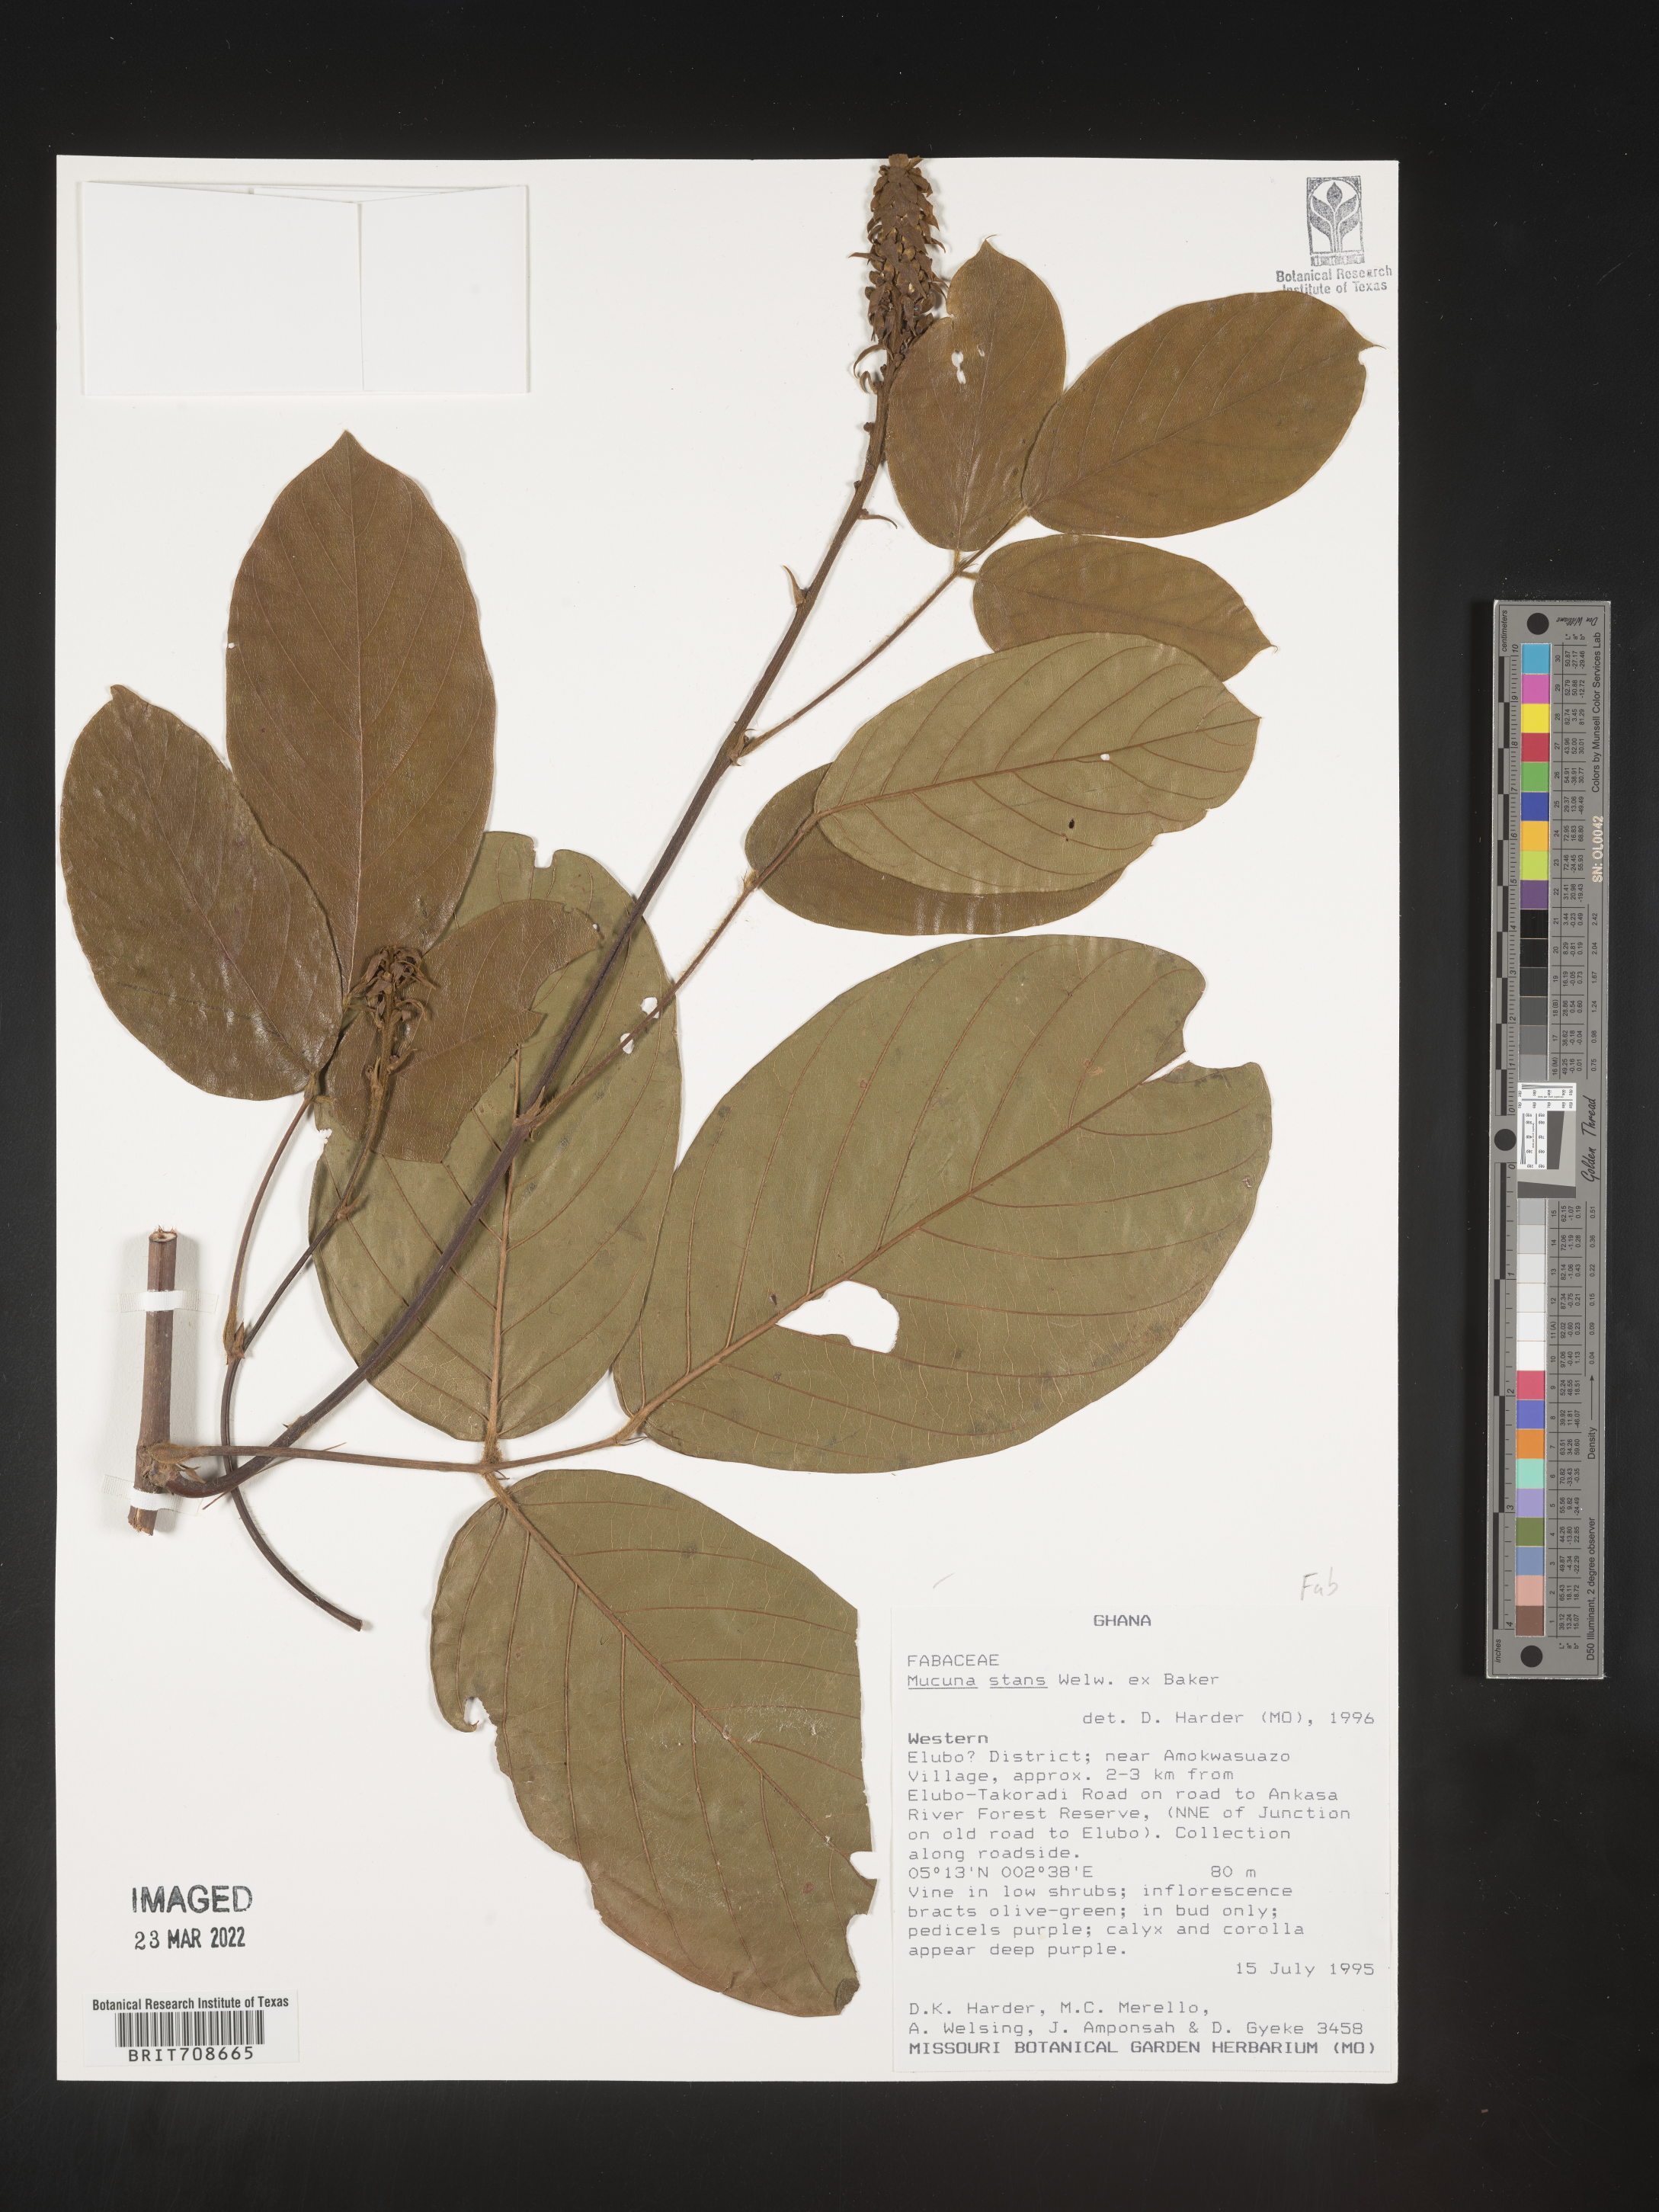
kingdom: Plantae
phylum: Tracheophyta
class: Magnoliopsida
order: Fabales
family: Fabaceae
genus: Mucuna
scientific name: Mucuna
